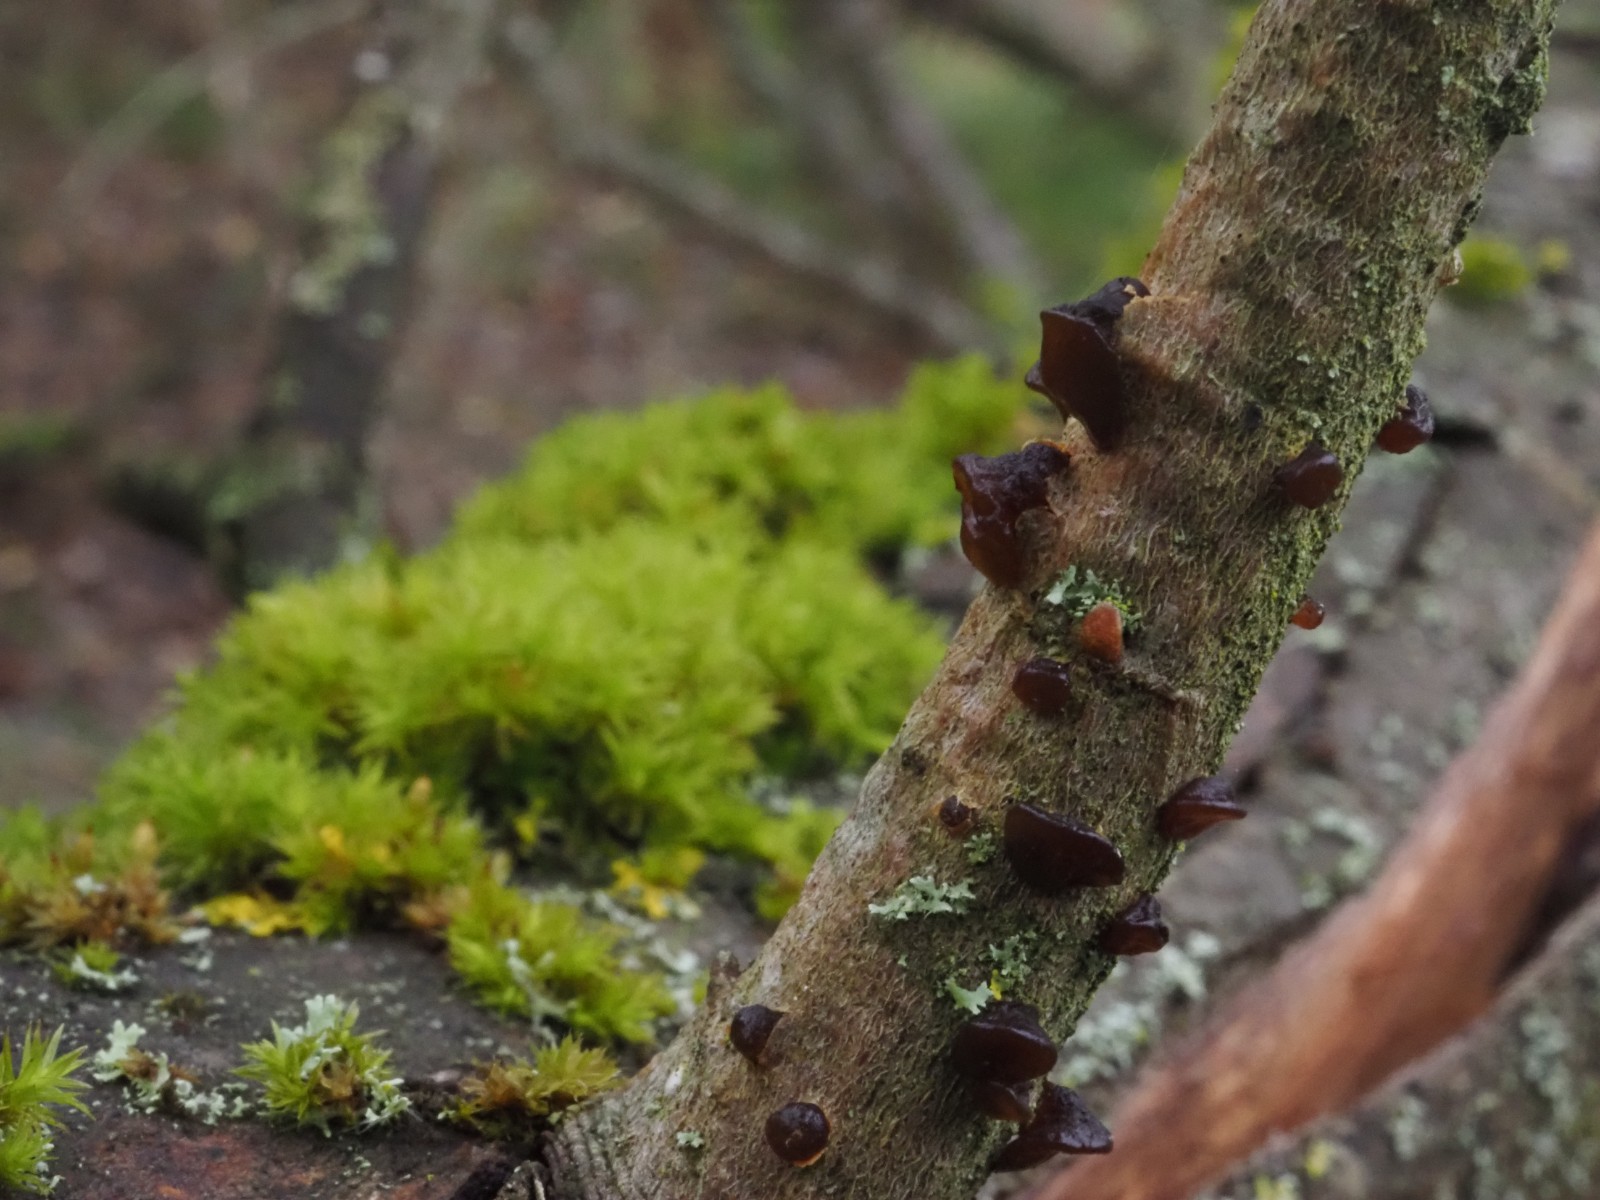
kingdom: Fungi
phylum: Basidiomycota
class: Agaricomycetes
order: Auriculariales
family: Auriculariaceae
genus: Exidia
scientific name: Exidia recisa
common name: pile-bævretop
